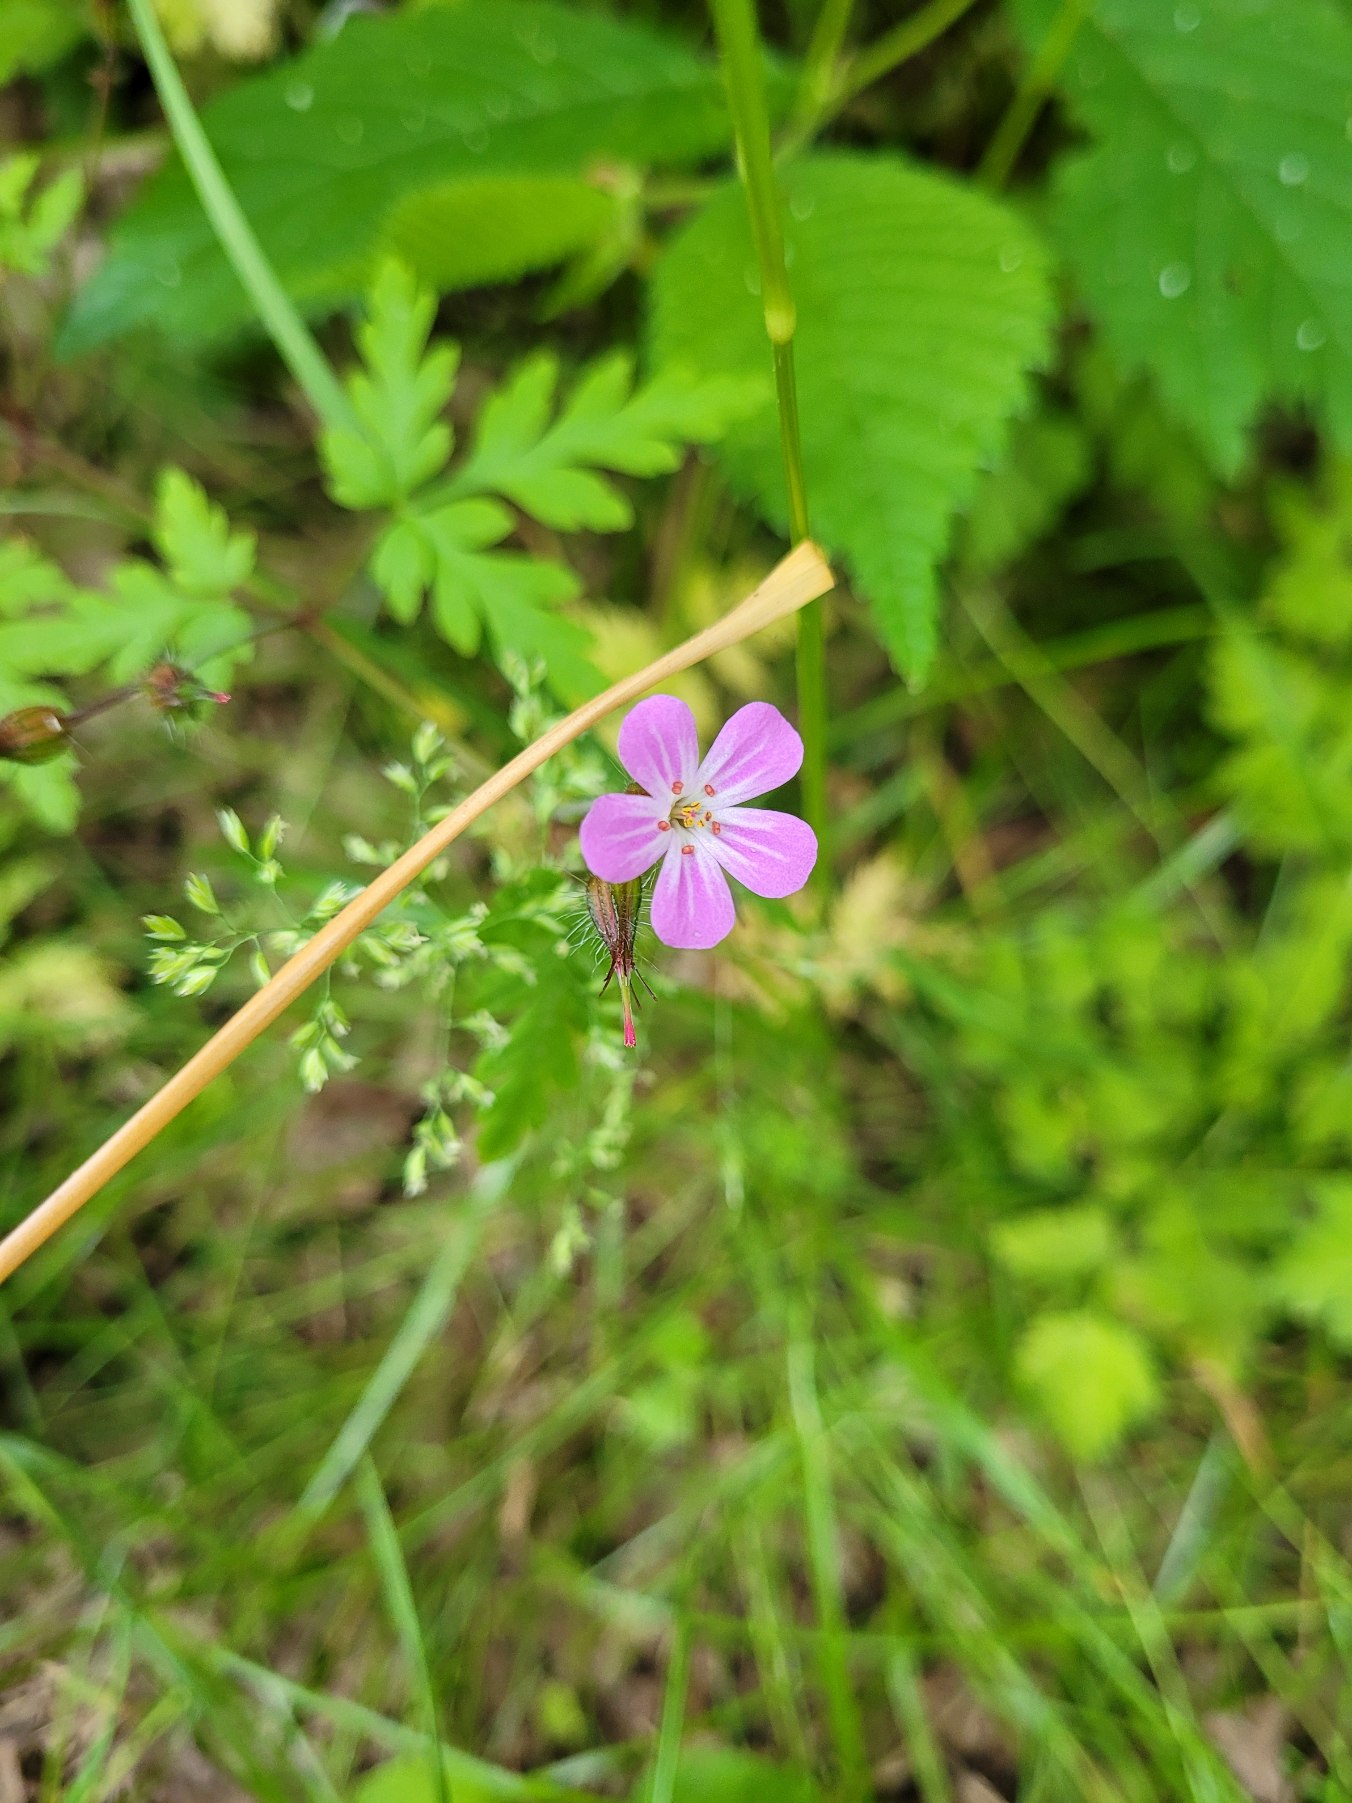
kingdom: Plantae
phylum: Tracheophyta
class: Magnoliopsida
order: Geraniales
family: Geraniaceae
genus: Geranium
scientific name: Geranium robertianum
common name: Stinkende storkenæb
